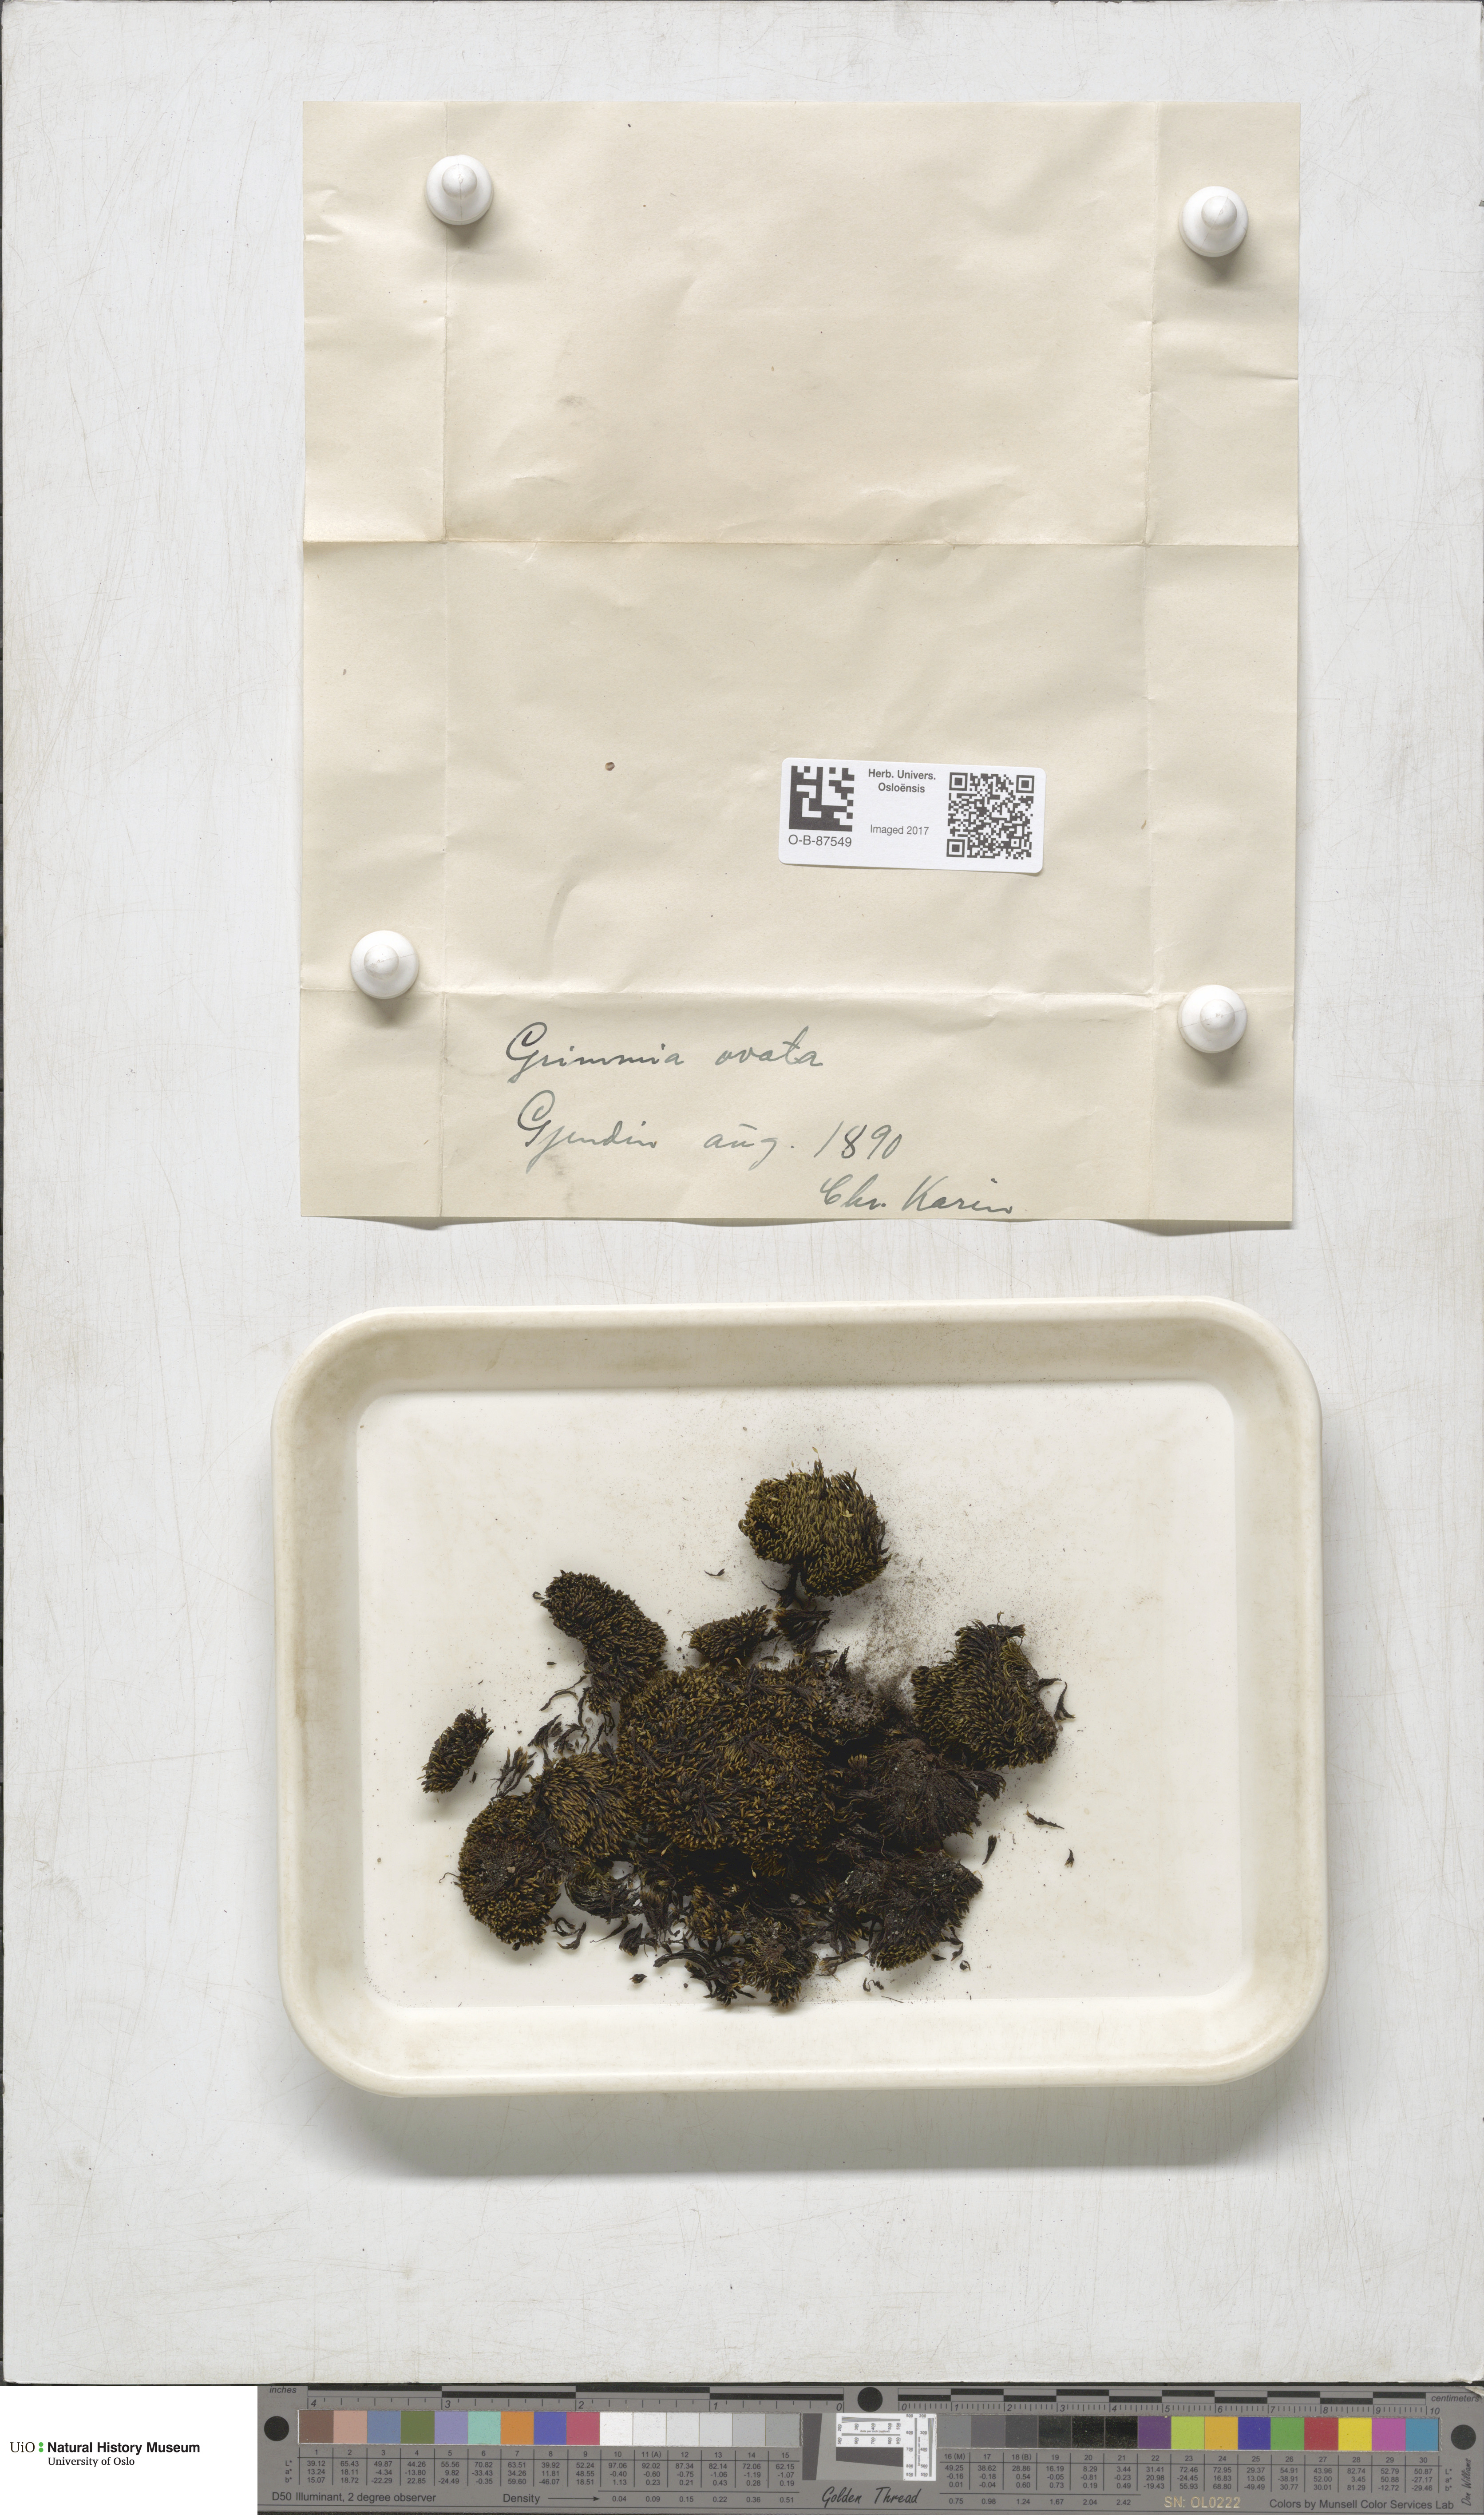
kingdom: Plantae
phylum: Bryophyta
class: Bryopsida
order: Grimmiales
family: Grimmiaceae
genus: Grimmia
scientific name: Grimmia ovalis
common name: Oval grimmia
